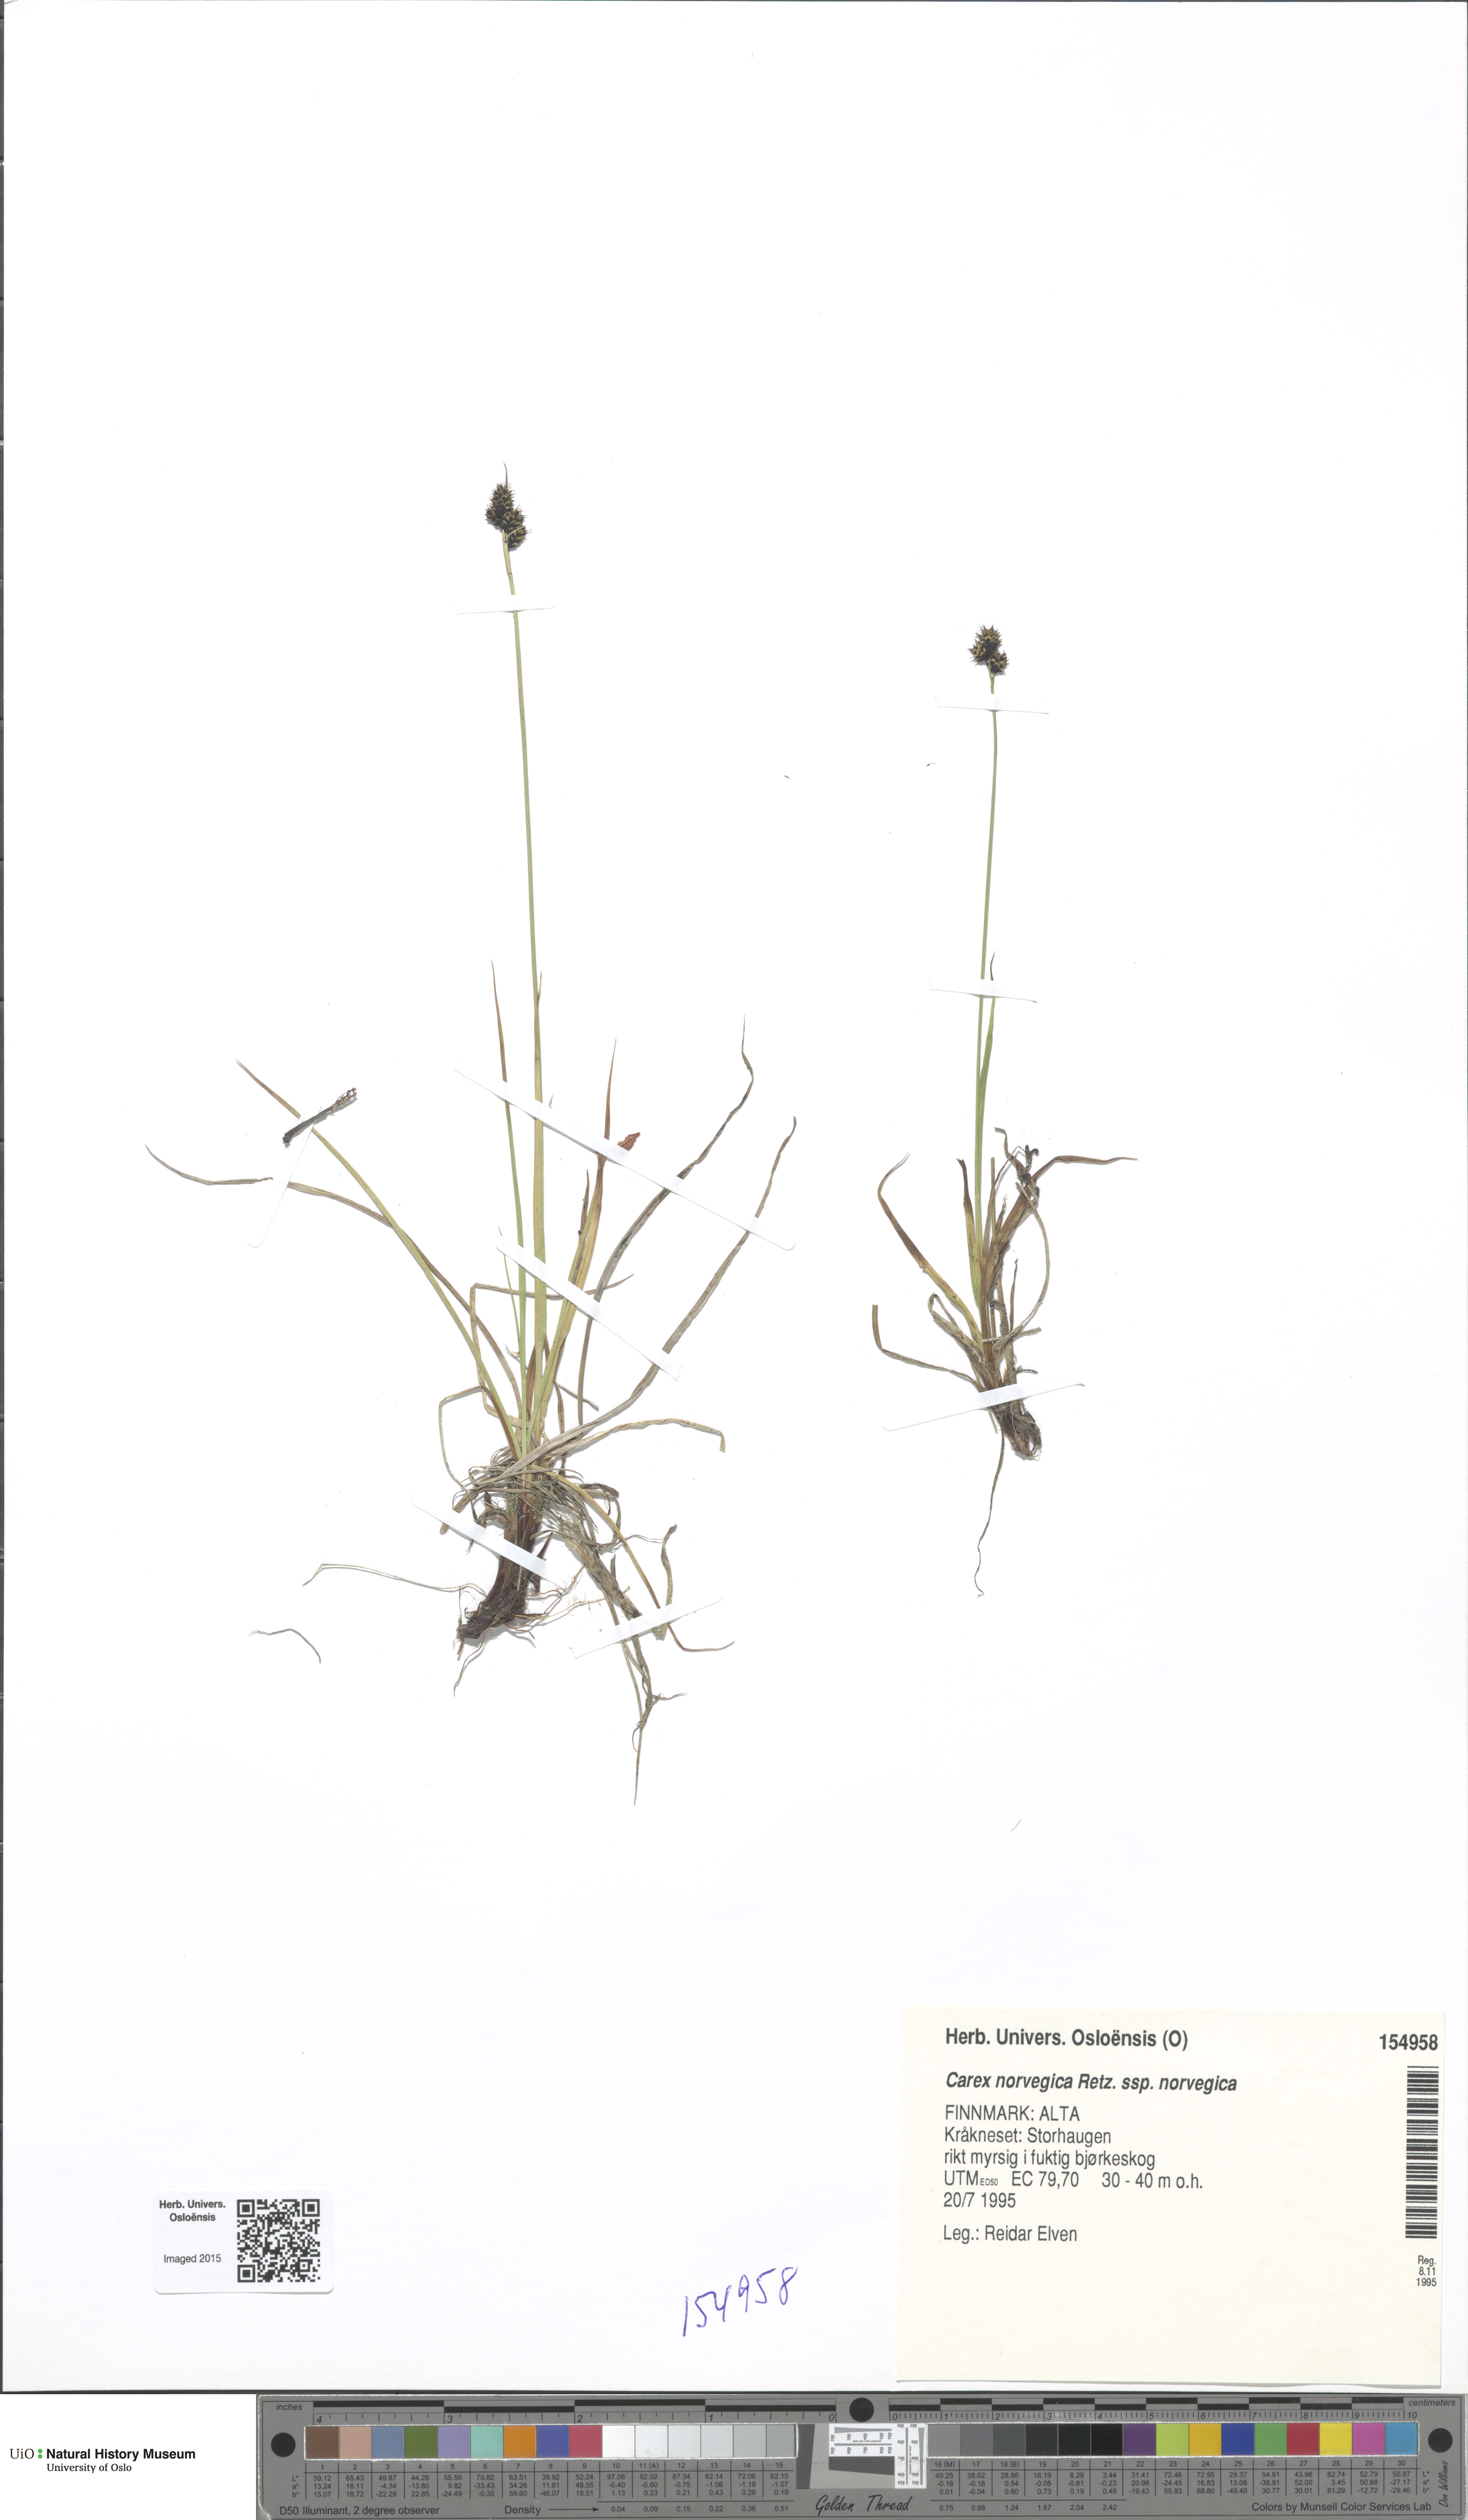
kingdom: Plantae
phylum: Tracheophyta
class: Liliopsida
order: Poales
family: Cyperaceae
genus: Carex
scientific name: Carex norvegica
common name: Close-headed alpine-sedge
